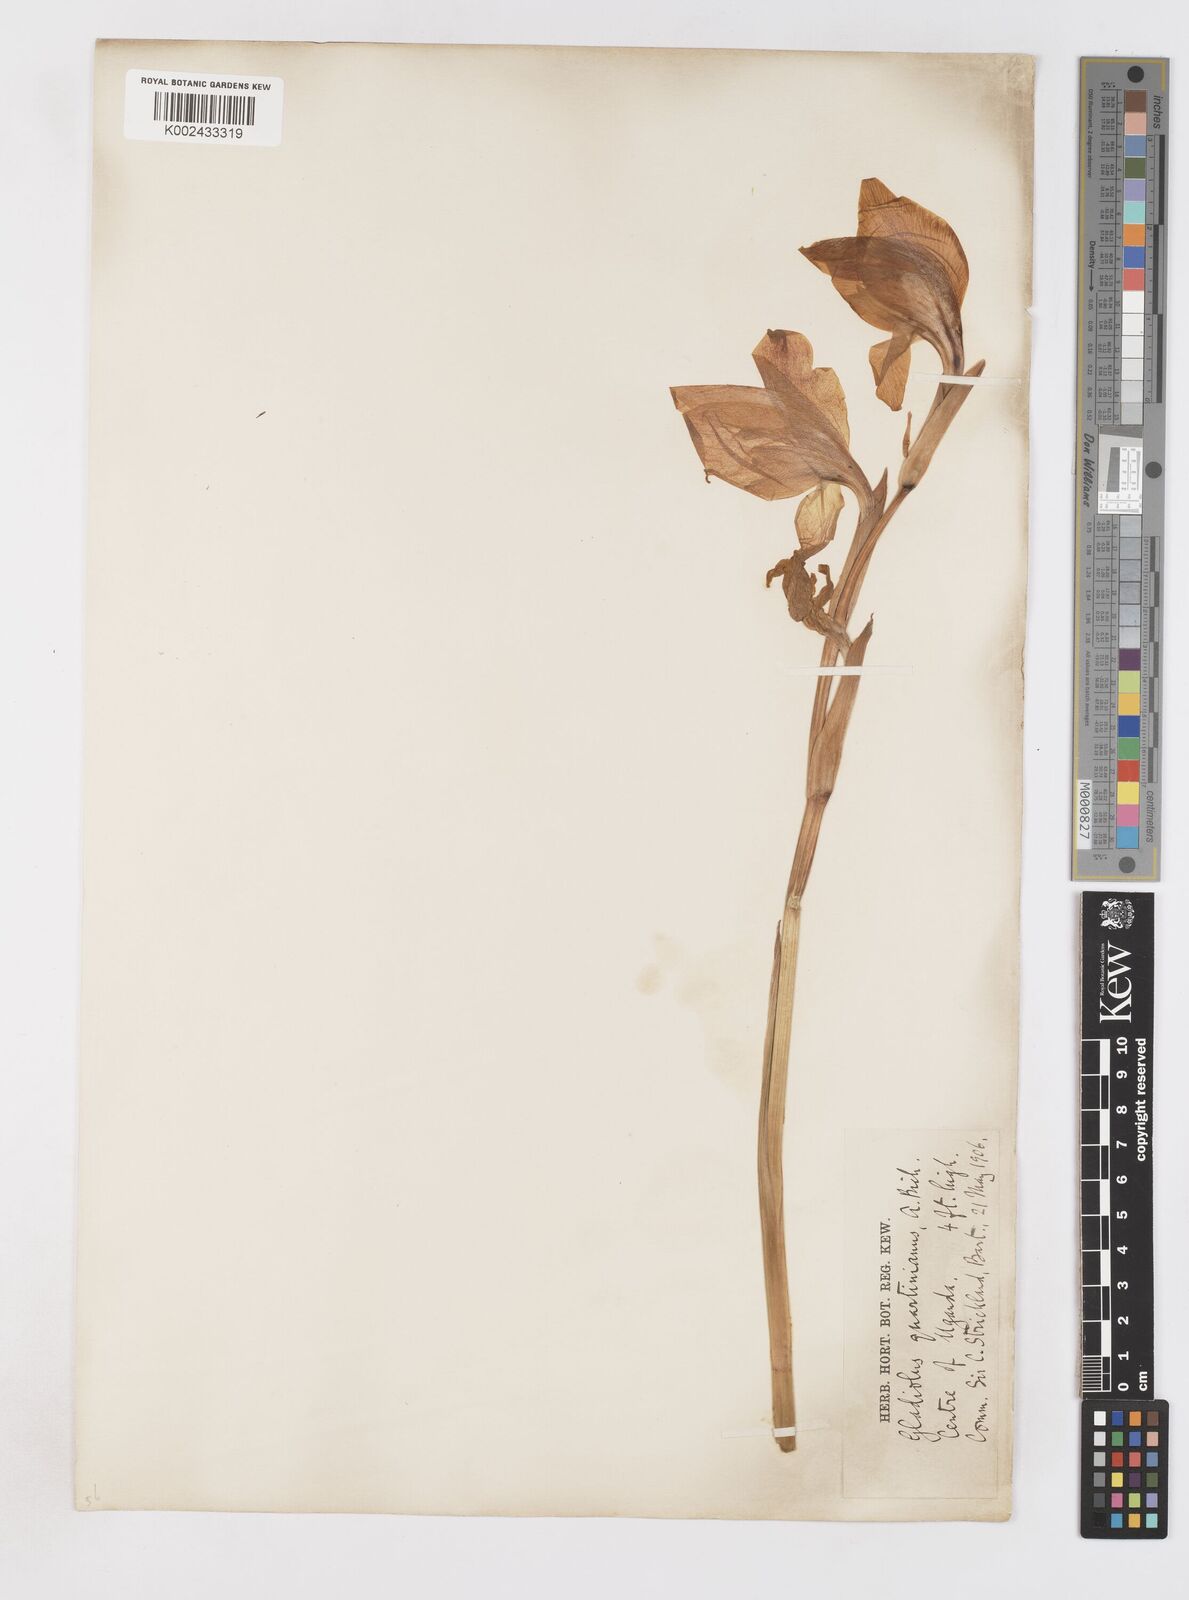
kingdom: Plantae
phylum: Tracheophyta
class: Liliopsida
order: Asparagales
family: Iridaceae
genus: Gladiolus
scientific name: Gladiolus dalenii
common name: Cornflag
